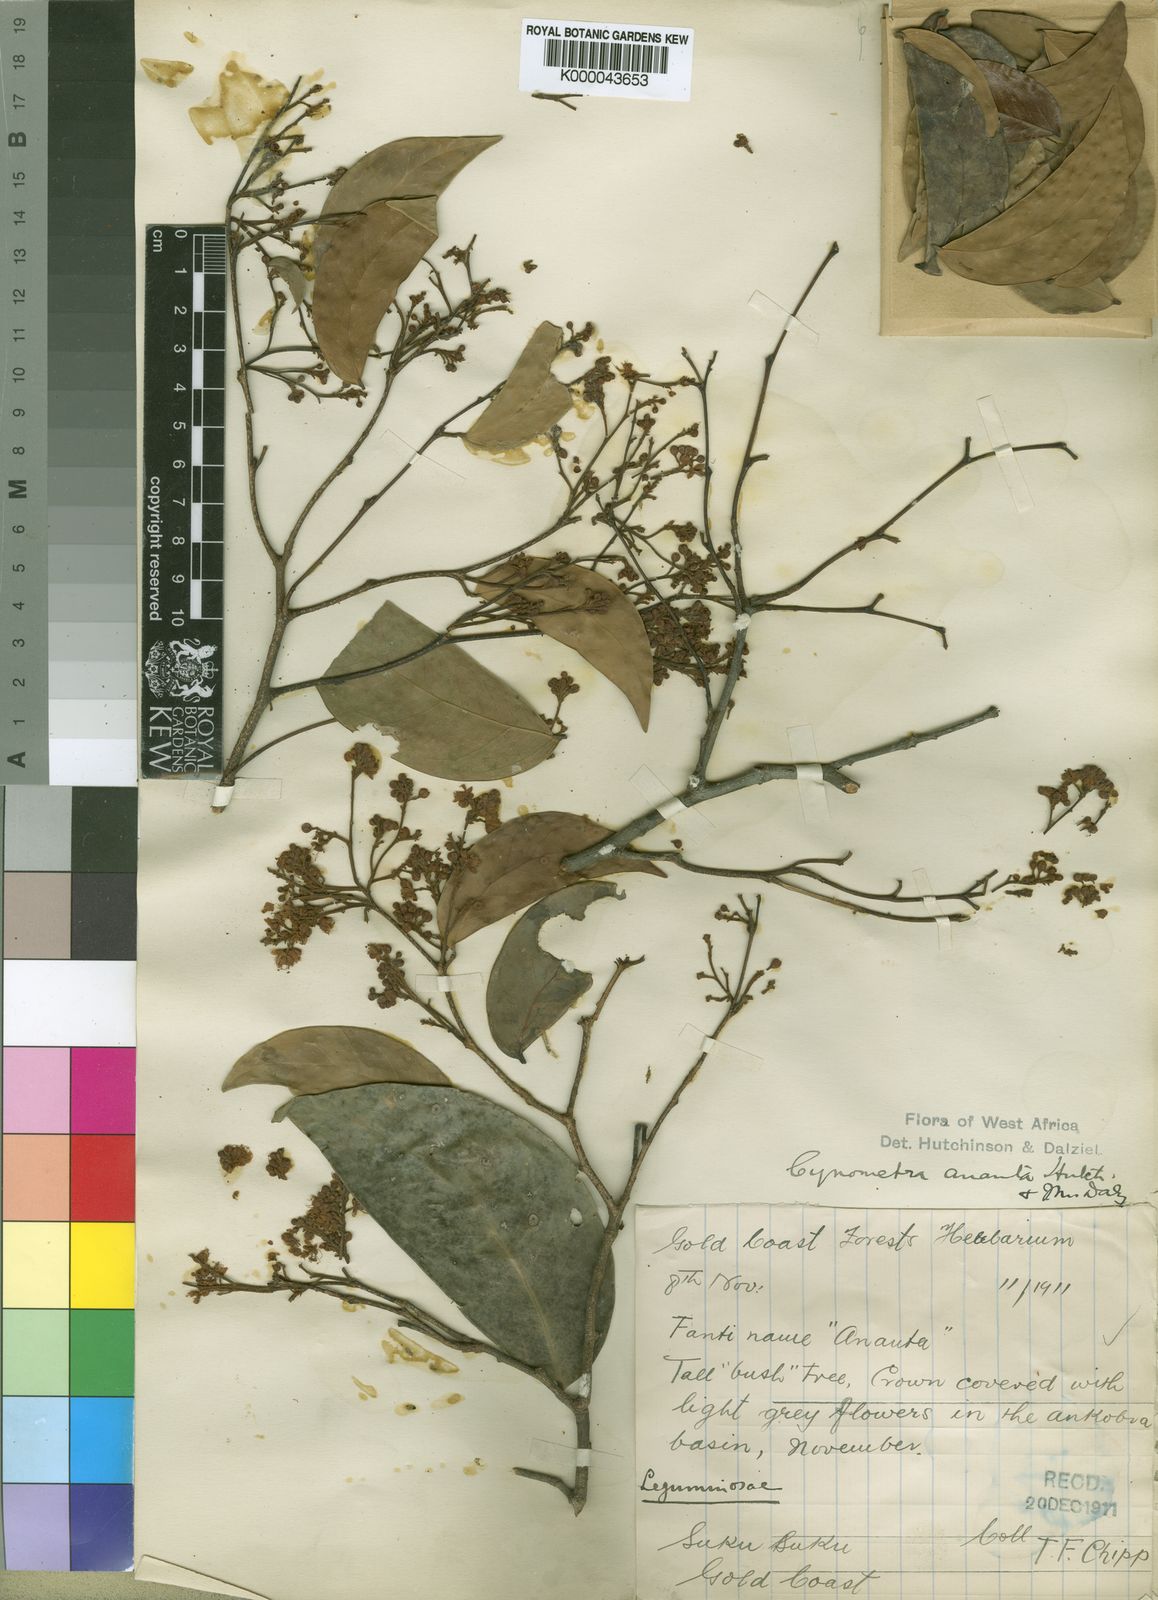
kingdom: Plantae
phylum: Tracheophyta
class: Magnoliopsida
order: Fabales
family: Fabaceae
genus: Cynometra
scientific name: Cynometra ananta
